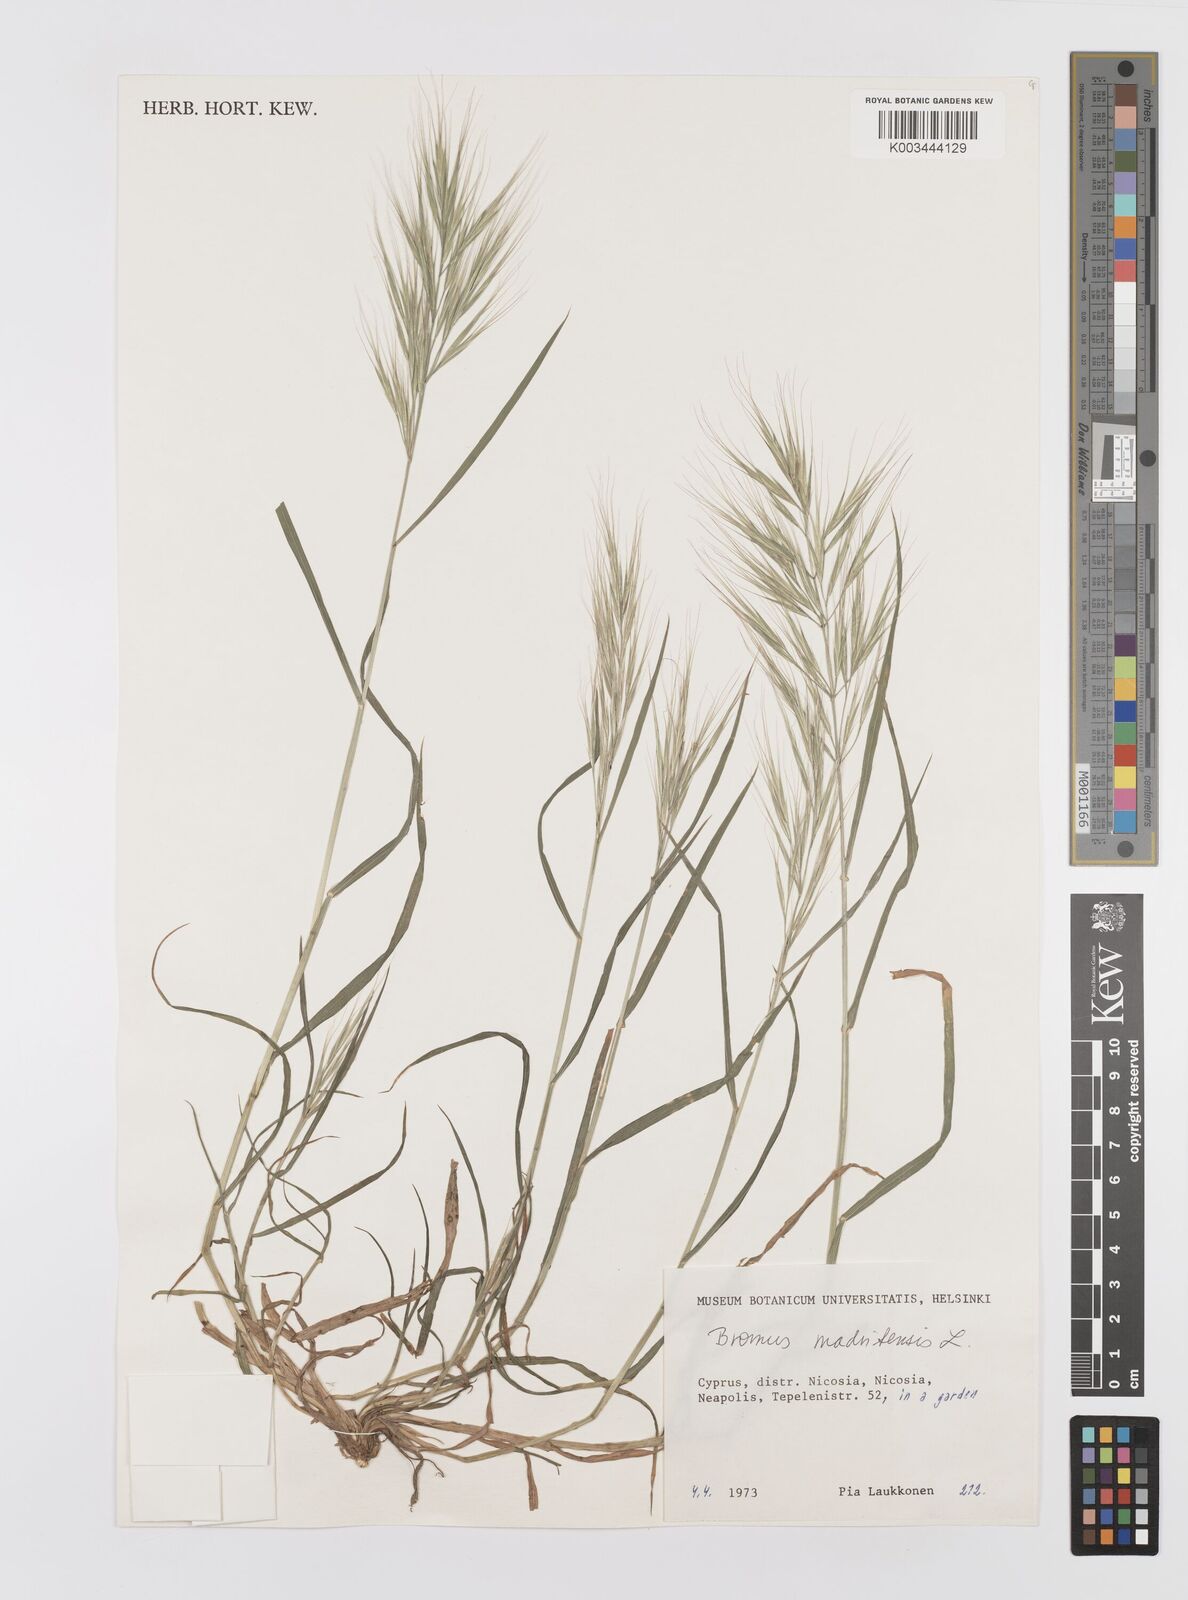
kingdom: Plantae
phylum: Tracheophyta
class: Liliopsida
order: Poales
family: Poaceae
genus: Bromus
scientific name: Bromus madritensis
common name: Compact brome
